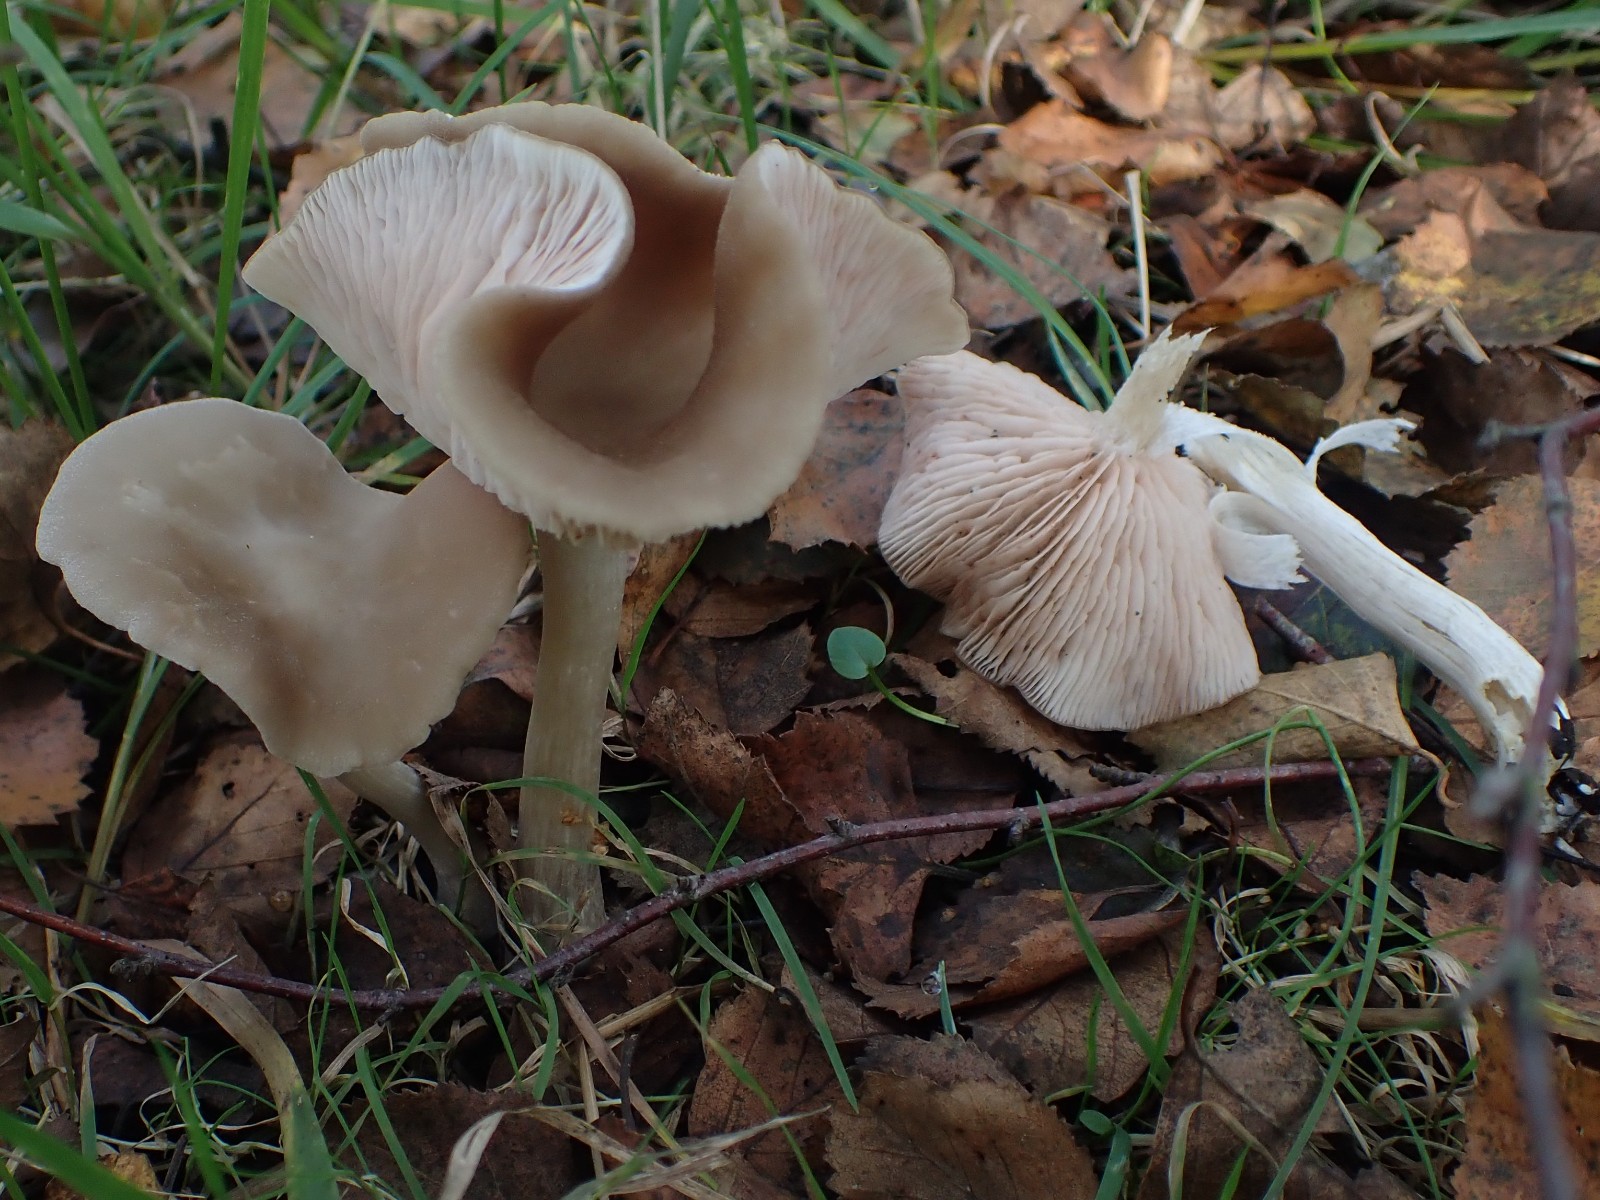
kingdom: Fungi
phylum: Basidiomycota
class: Agaricomycetes
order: Agaricales
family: Entolomataceae
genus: Entoloma
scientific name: Entoloma
